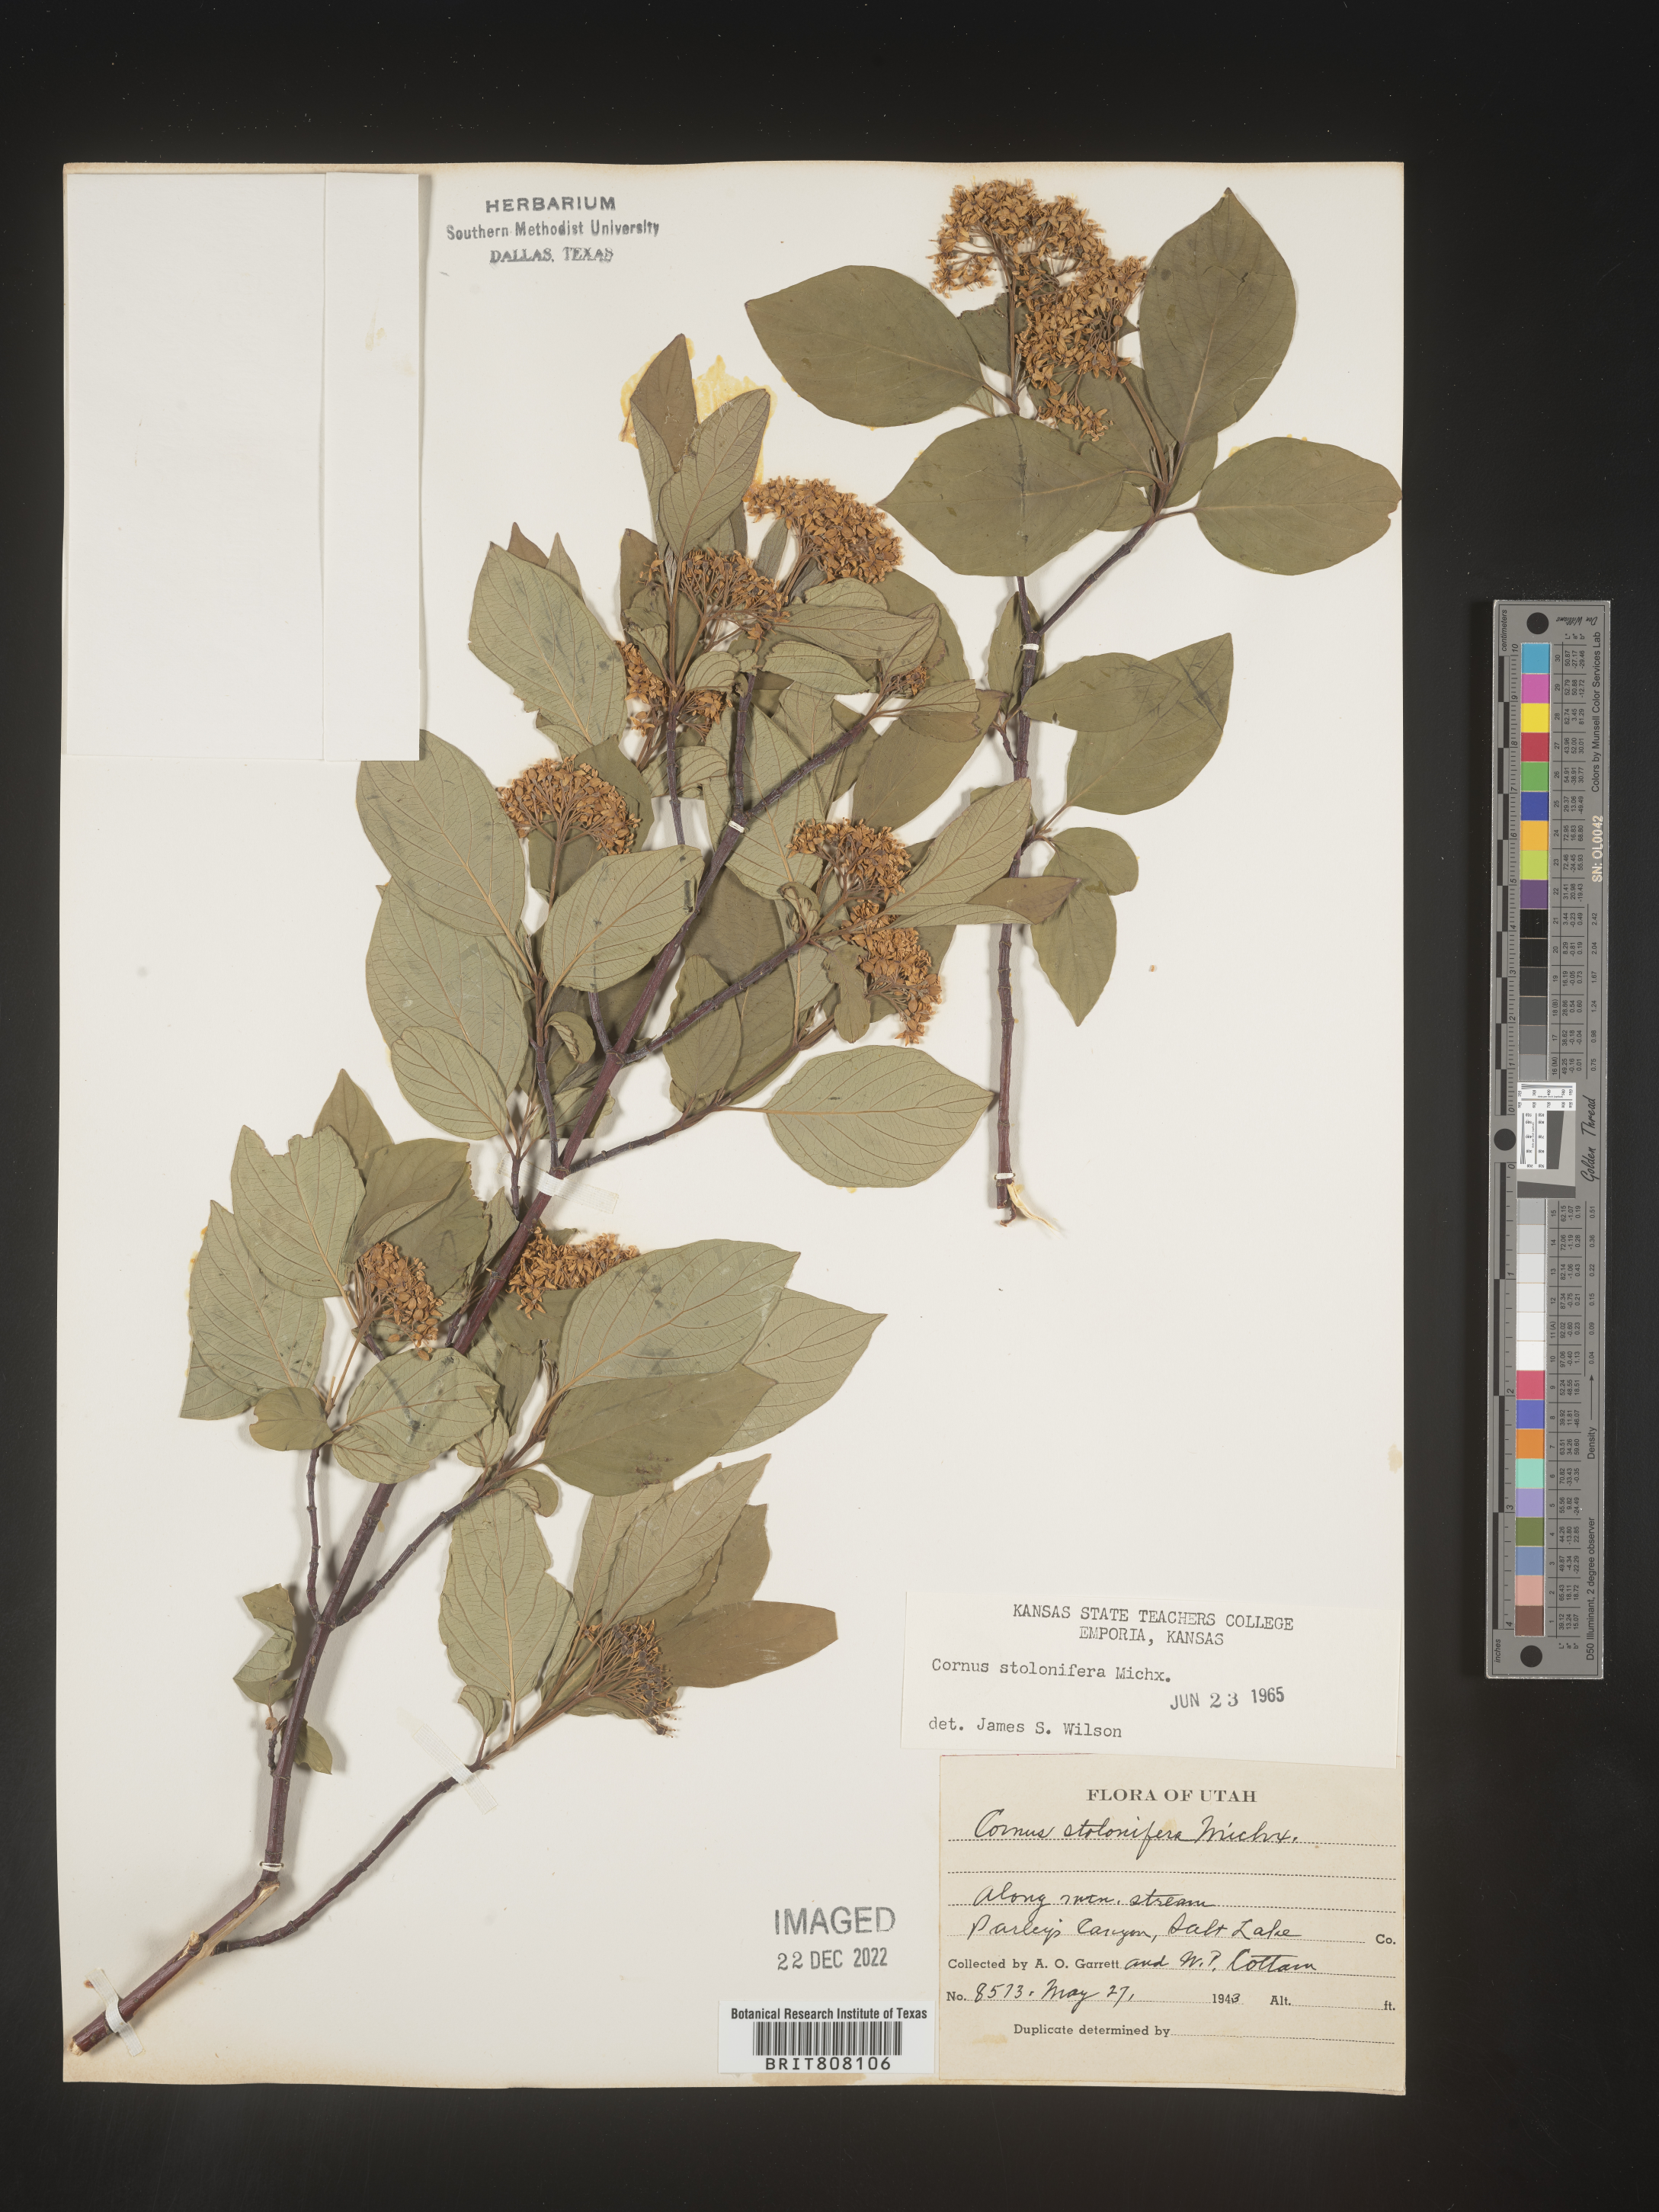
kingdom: Plantae
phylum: Tracheophyta
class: Magnoliopsida
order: Cornales
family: Cornaceae
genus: Cornus
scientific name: Cornus sericea
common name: Red-osier dogwood
